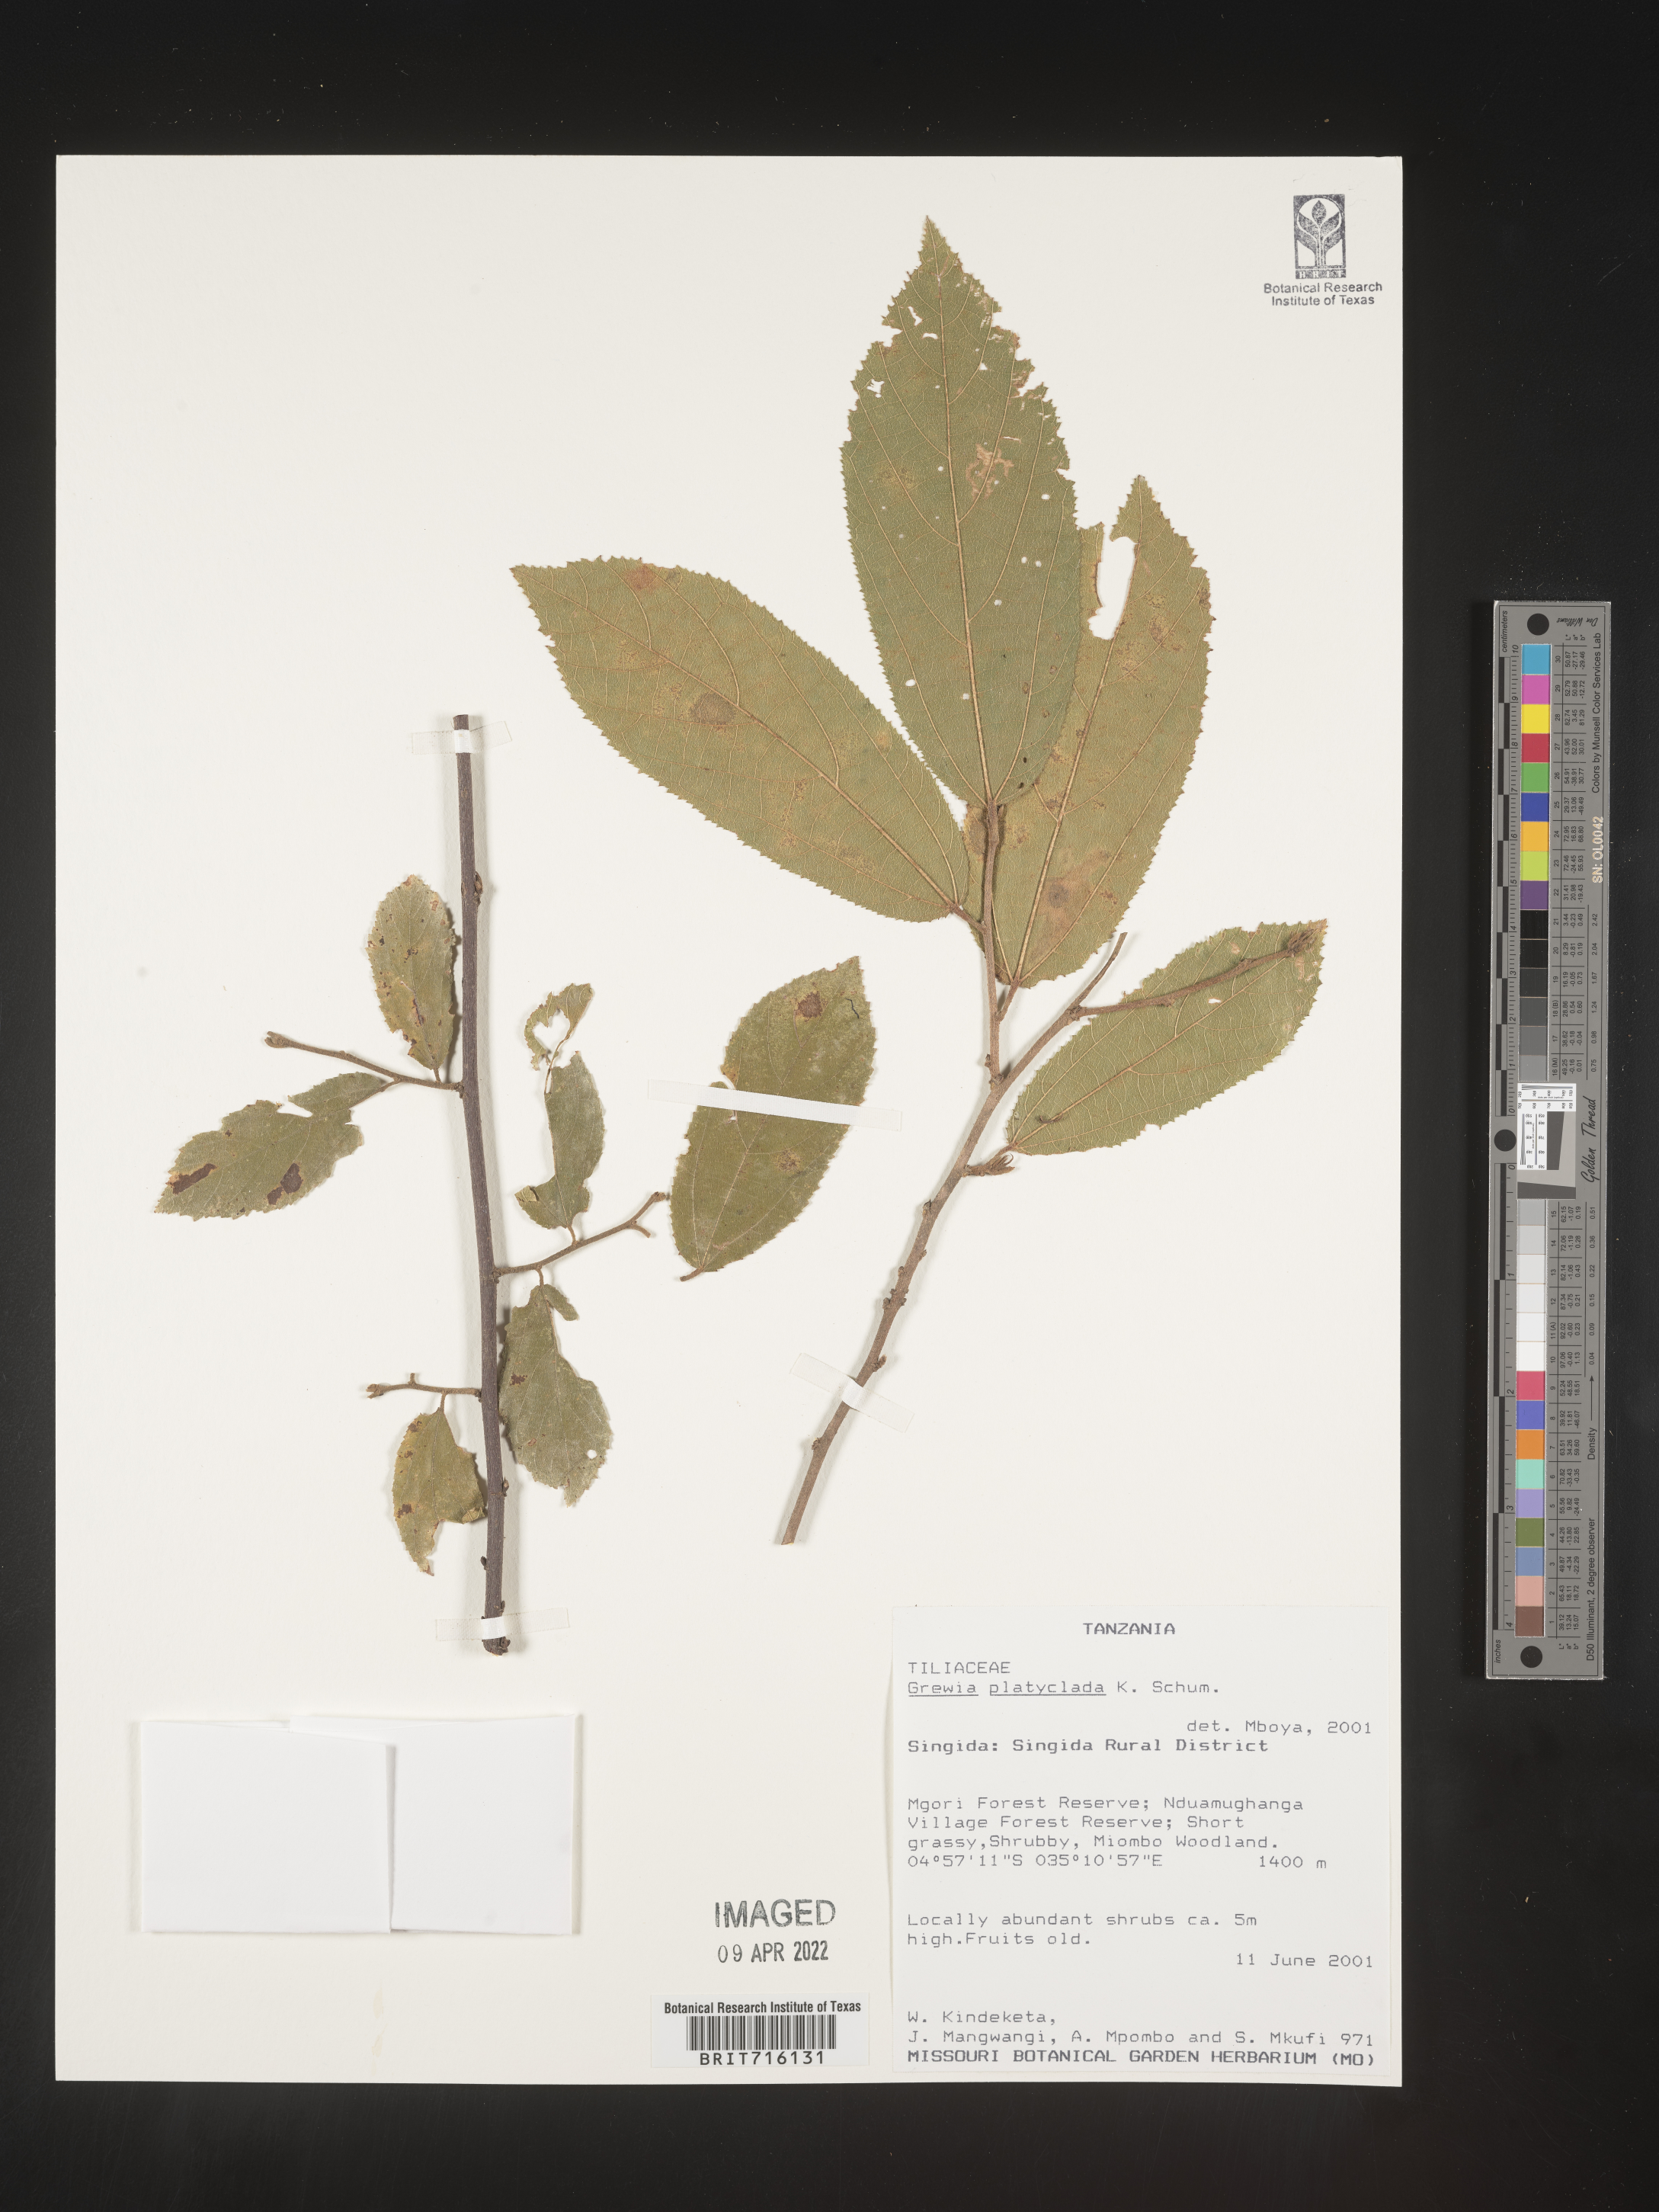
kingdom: Plantae
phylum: Tracheophyta
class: Magnoliopsida
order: Malvales
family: Malvaceae
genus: Grewia
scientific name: Grewia
